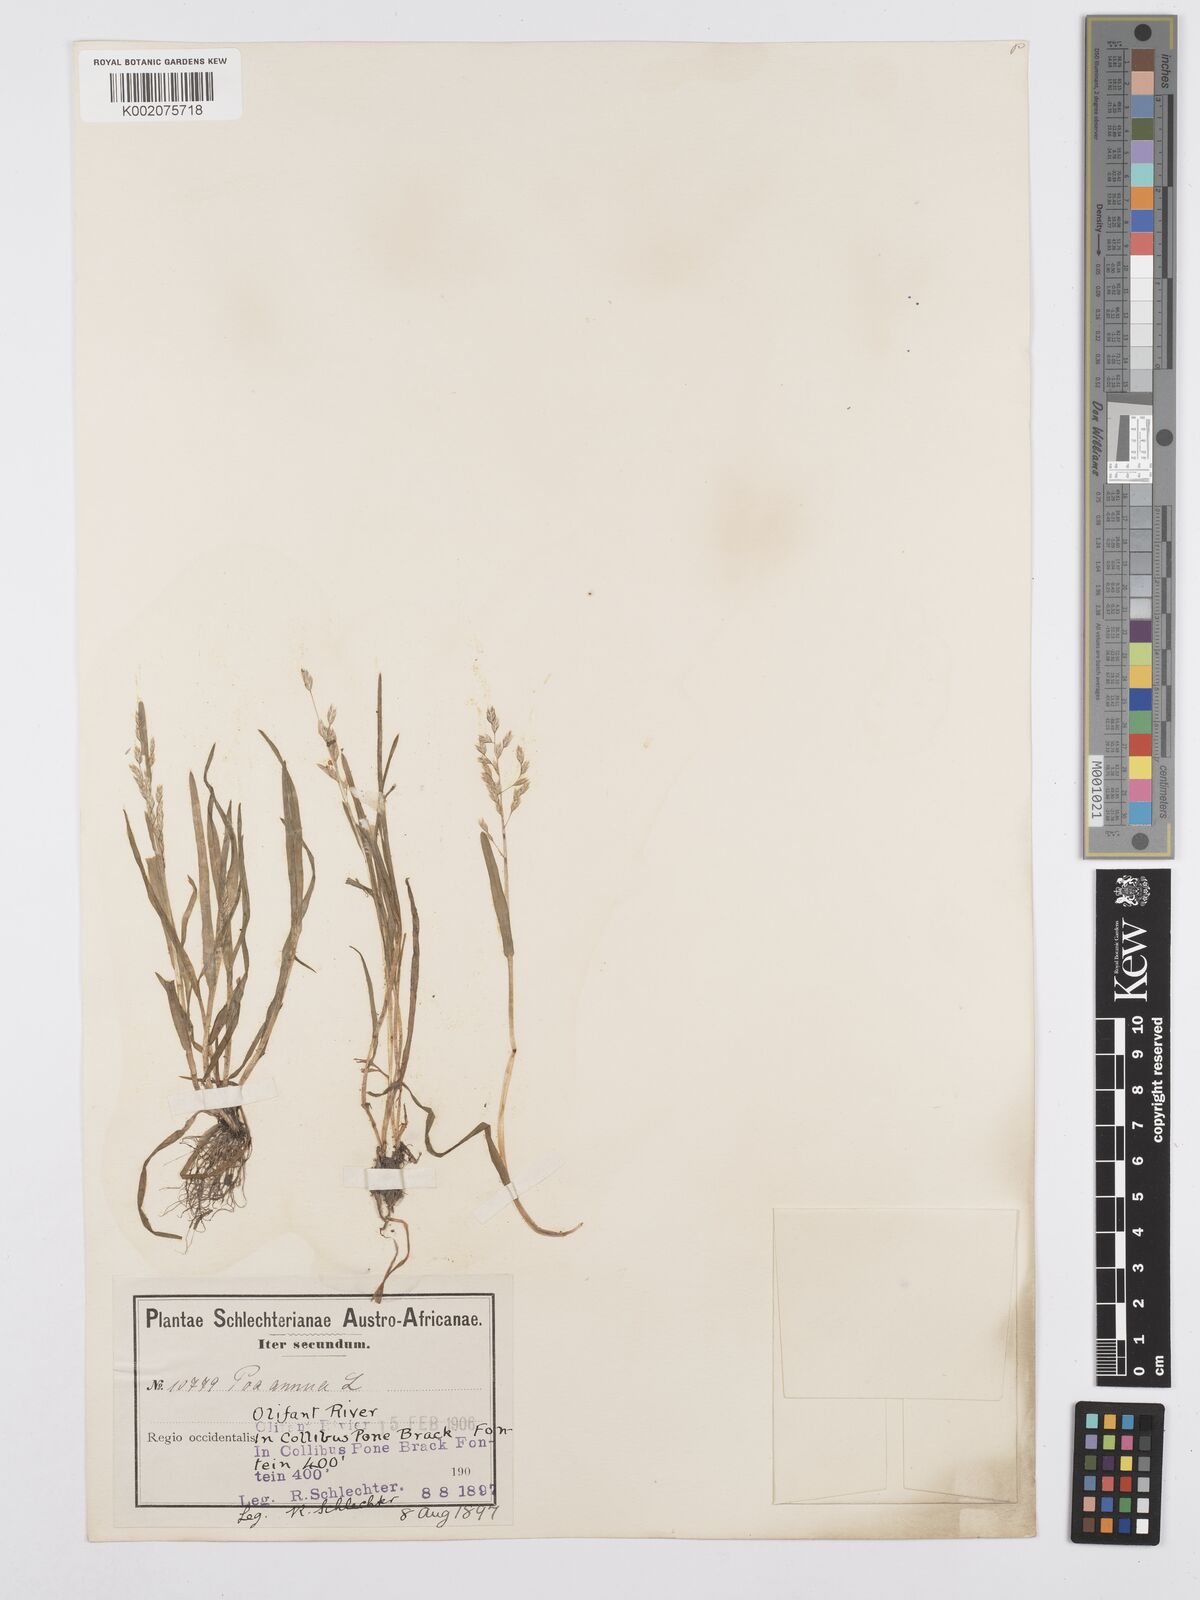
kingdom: Plantae
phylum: Tracheophyta
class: Liliopsida
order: Poales
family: Poaceae
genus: Poa
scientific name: Poa annua
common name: Annual bluegrass
